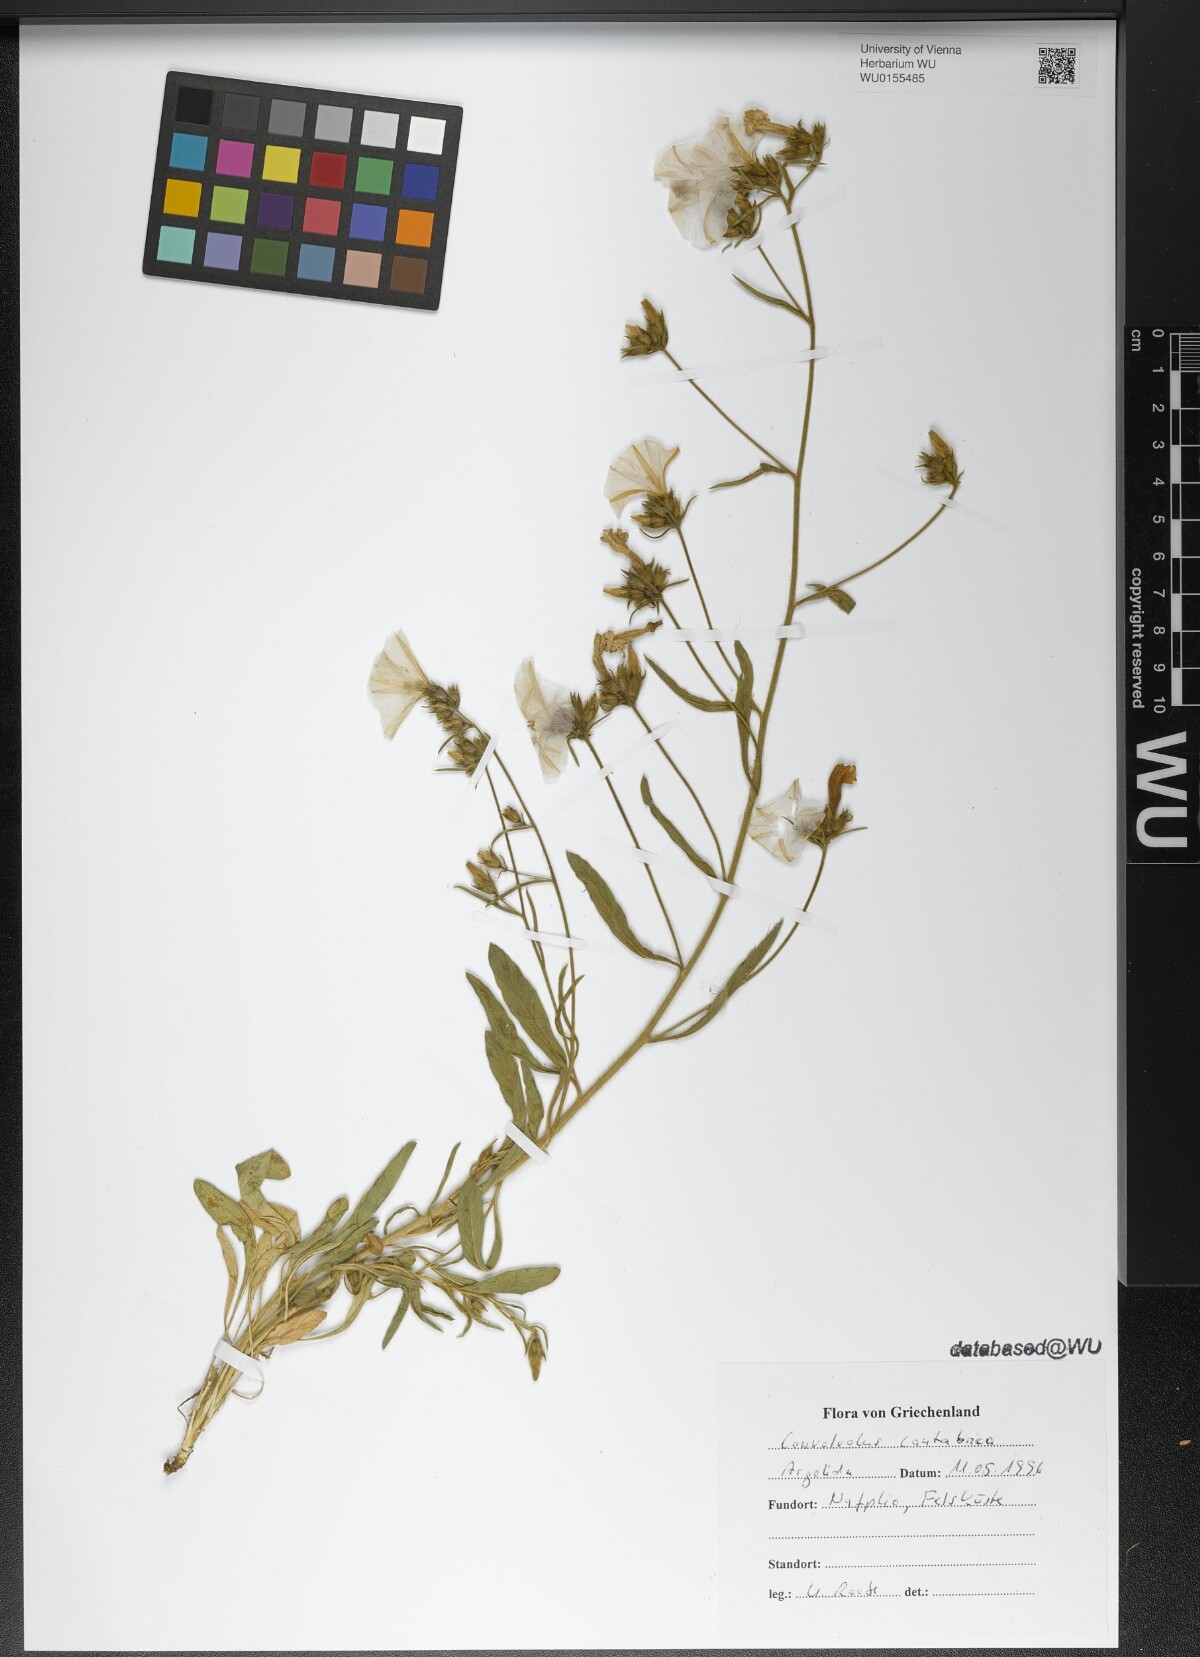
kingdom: Plantae
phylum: Tracheophyta
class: Magnoliopsida
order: Solanales
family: Convolvulaceae
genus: Convolvulus
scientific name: Convolvulus cantabrica
